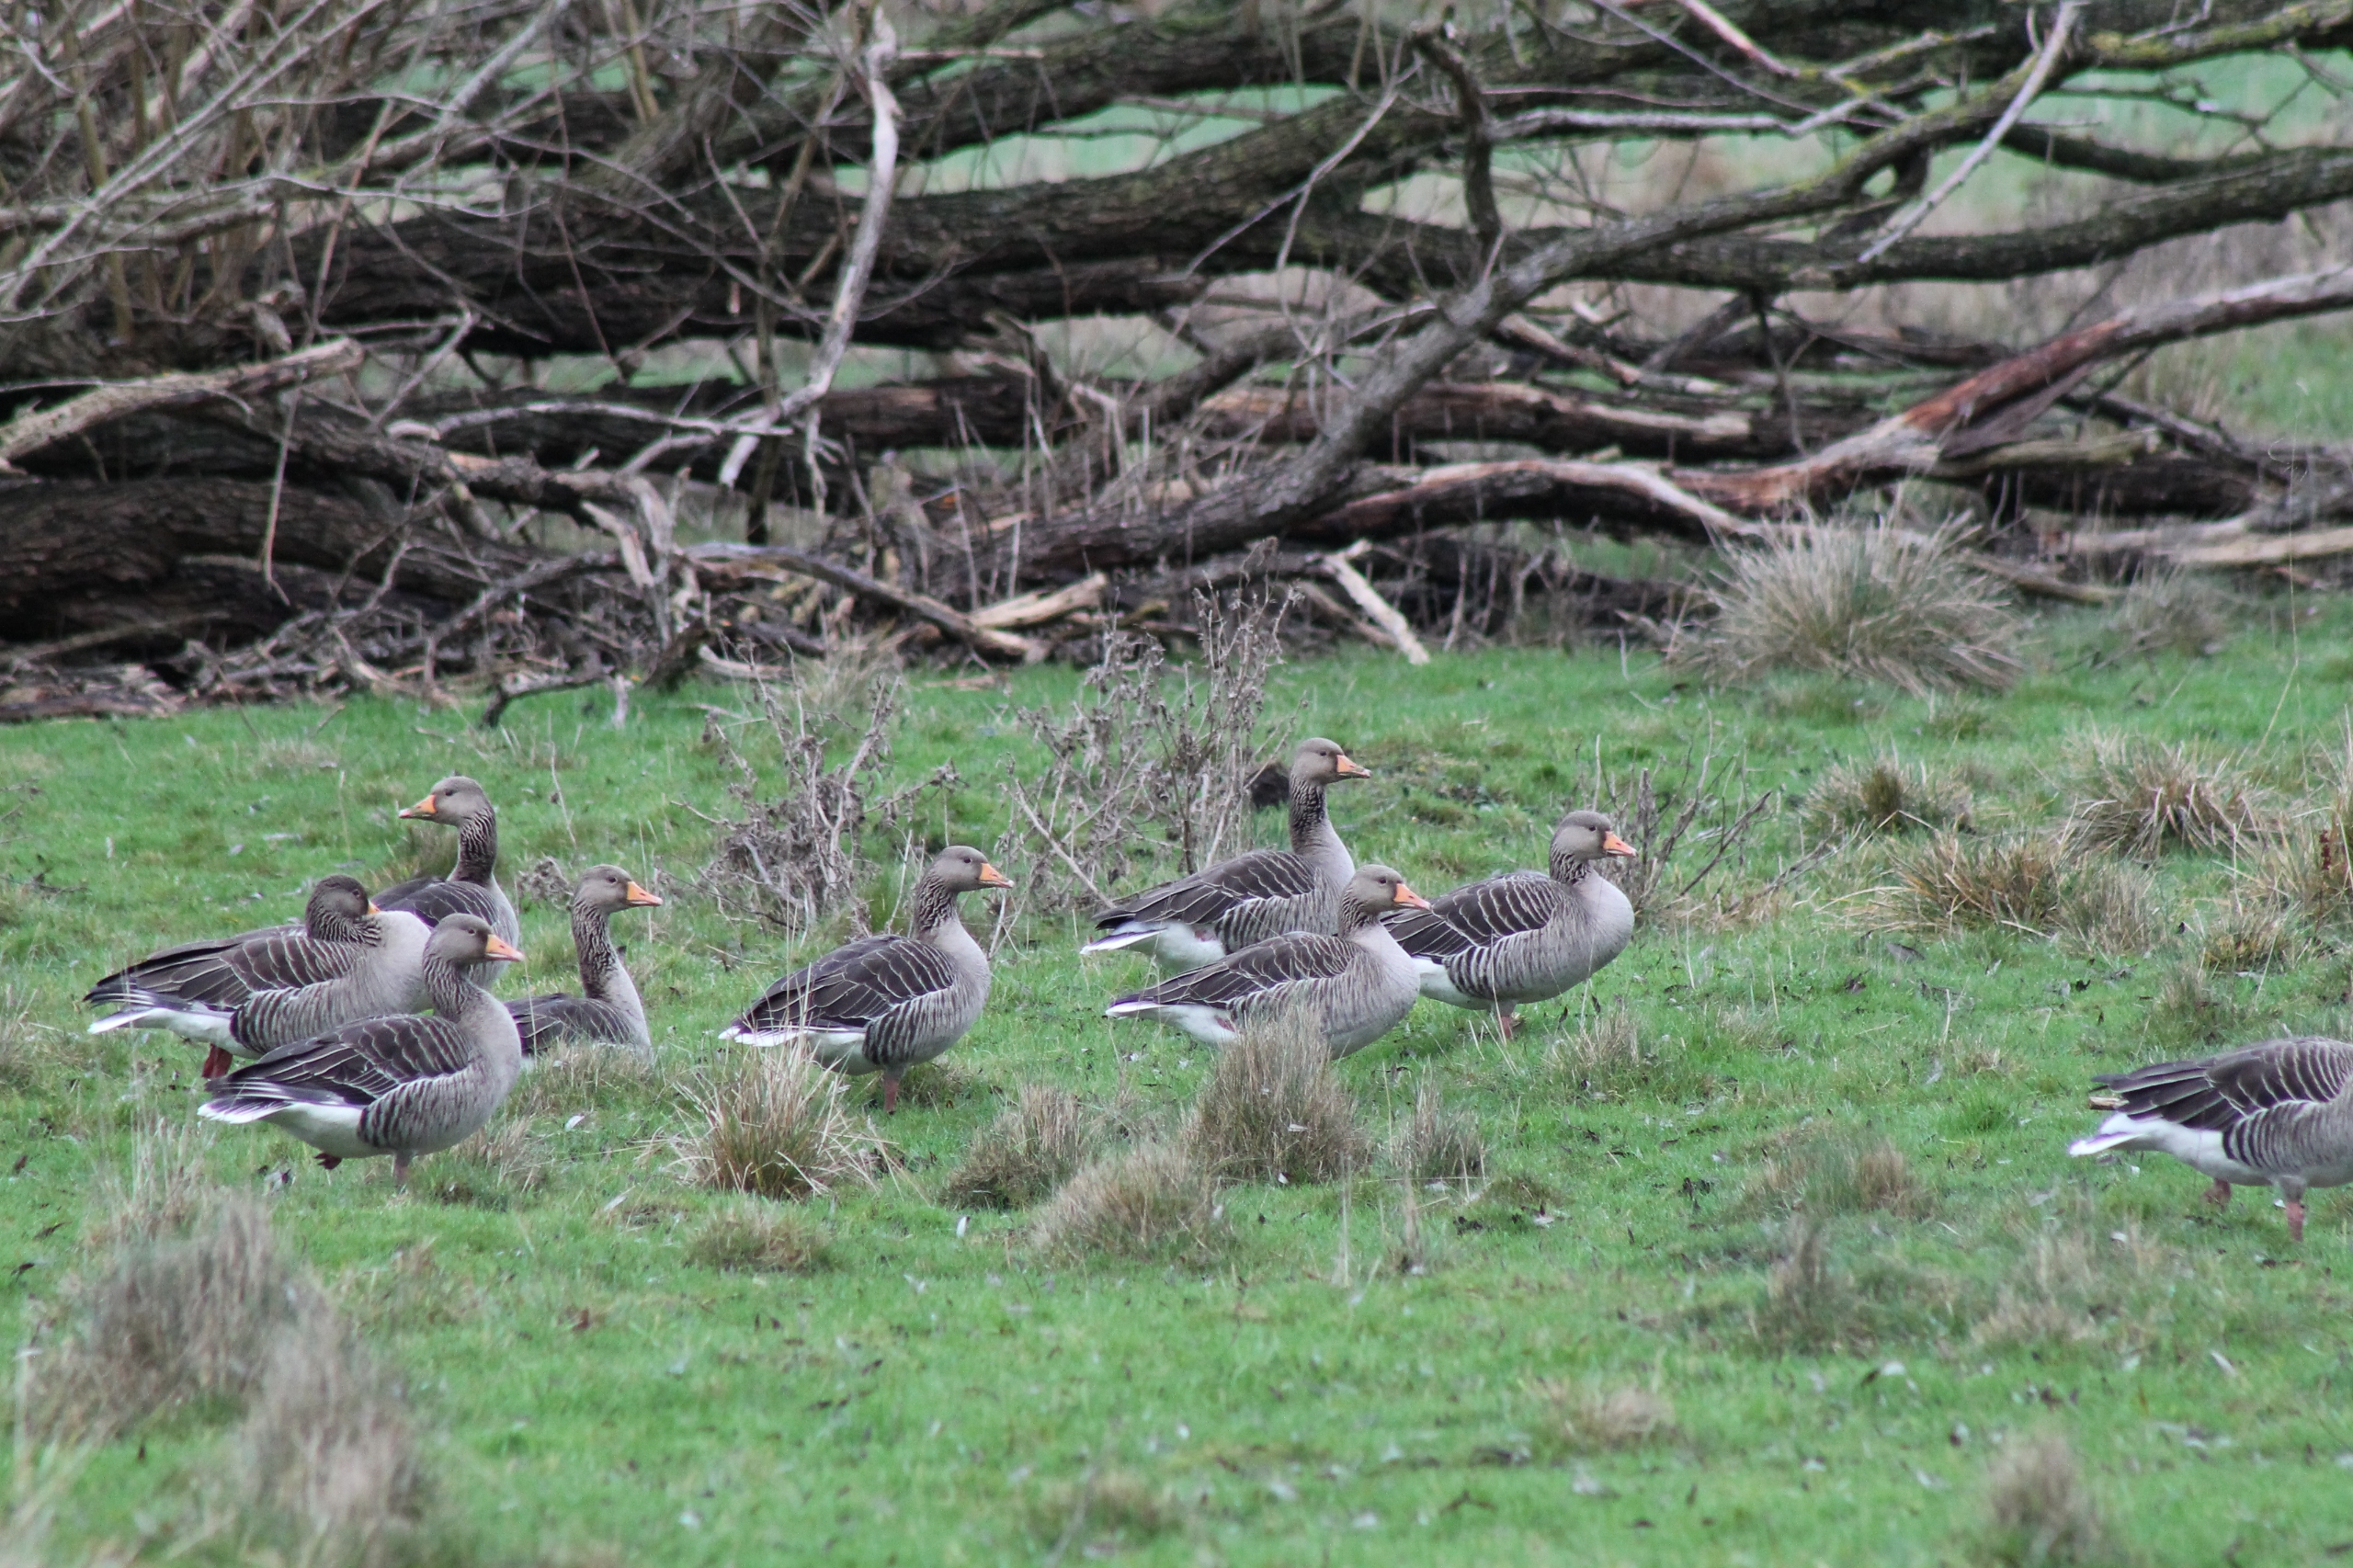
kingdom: Animalia
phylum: Chordata
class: Aves
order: Anseriformes
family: Anatidae
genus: Anser
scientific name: Anser anser
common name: Grågås
